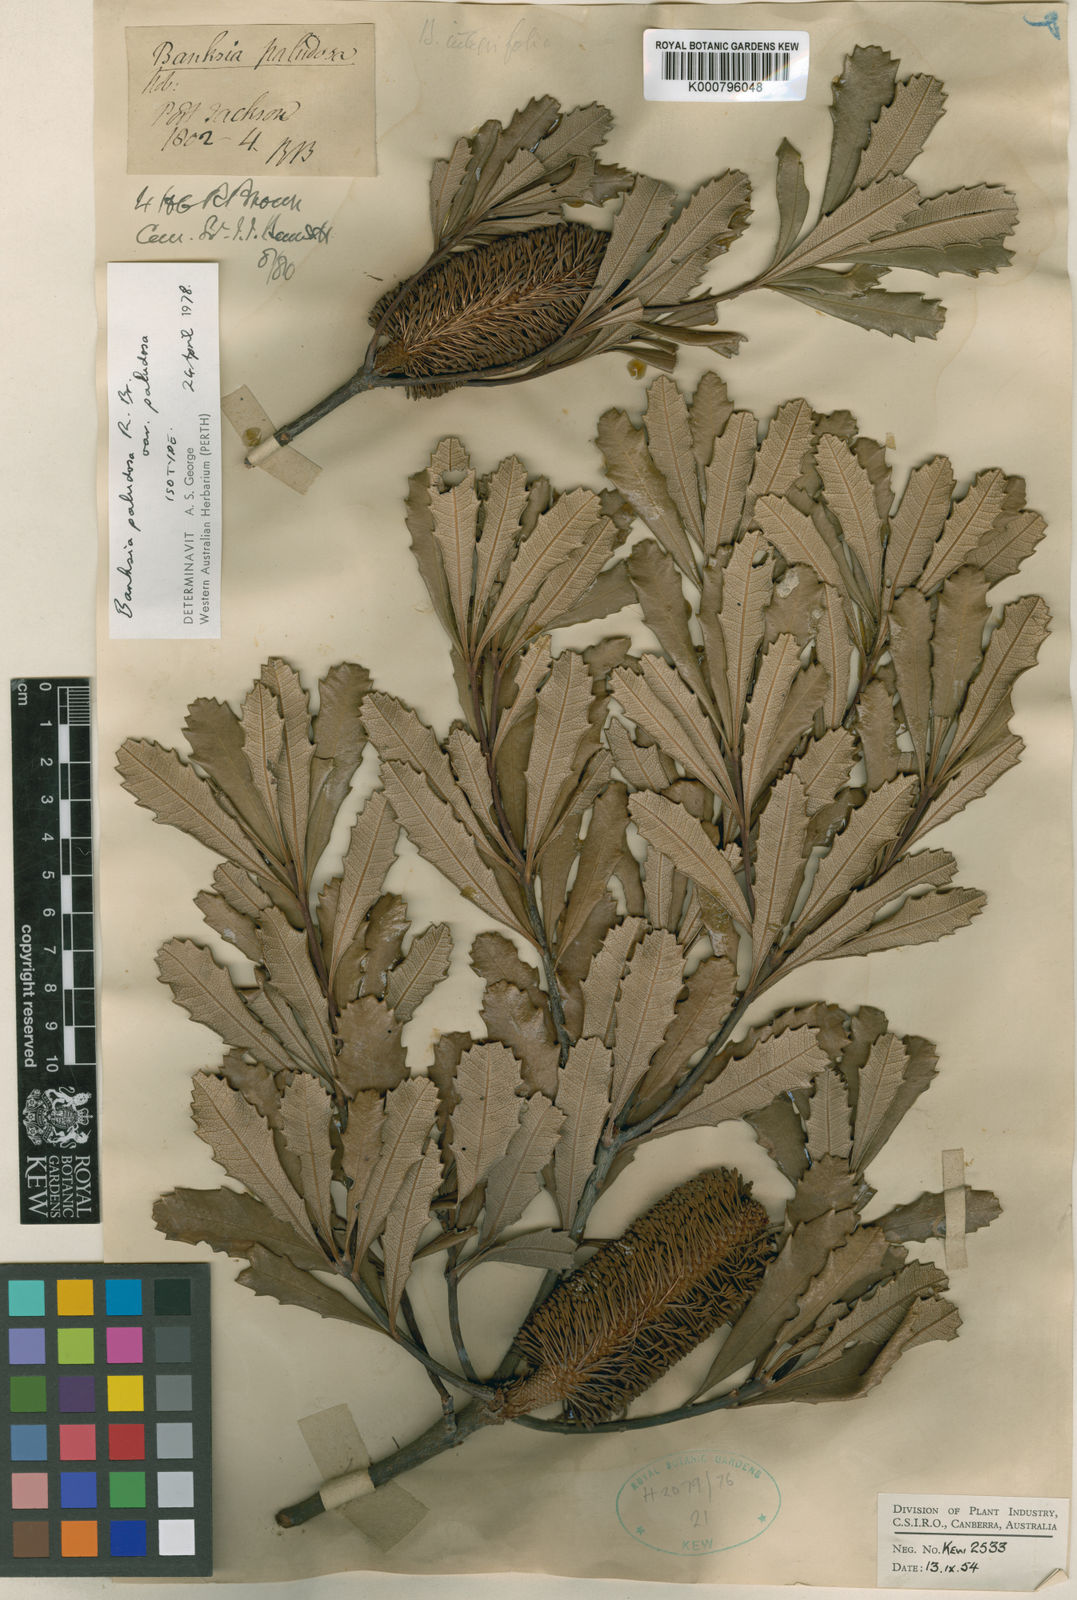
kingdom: Plantae
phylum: Tracheophyta
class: Magnoliopsida
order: Proteales
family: Proteaceae
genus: Banksia
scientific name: Banksia paludosa
